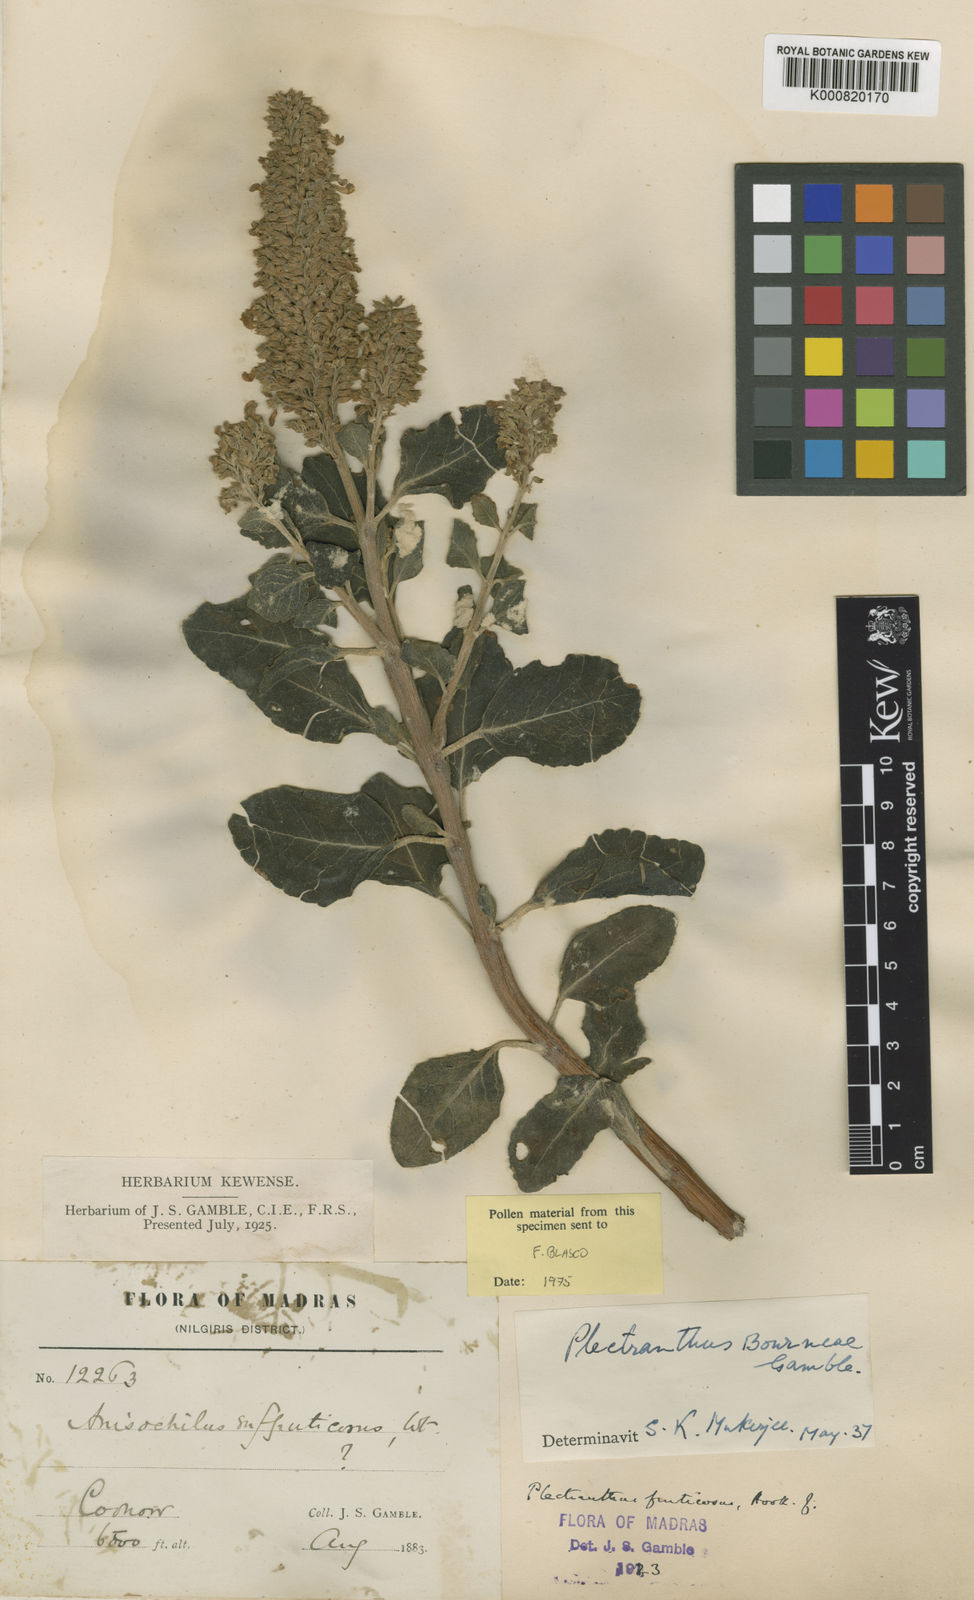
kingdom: Plantae
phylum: Tracheophyta
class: Magnoliopsida
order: Lamiales
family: Lamiaceae
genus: Coleus
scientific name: Coleus bourneae
